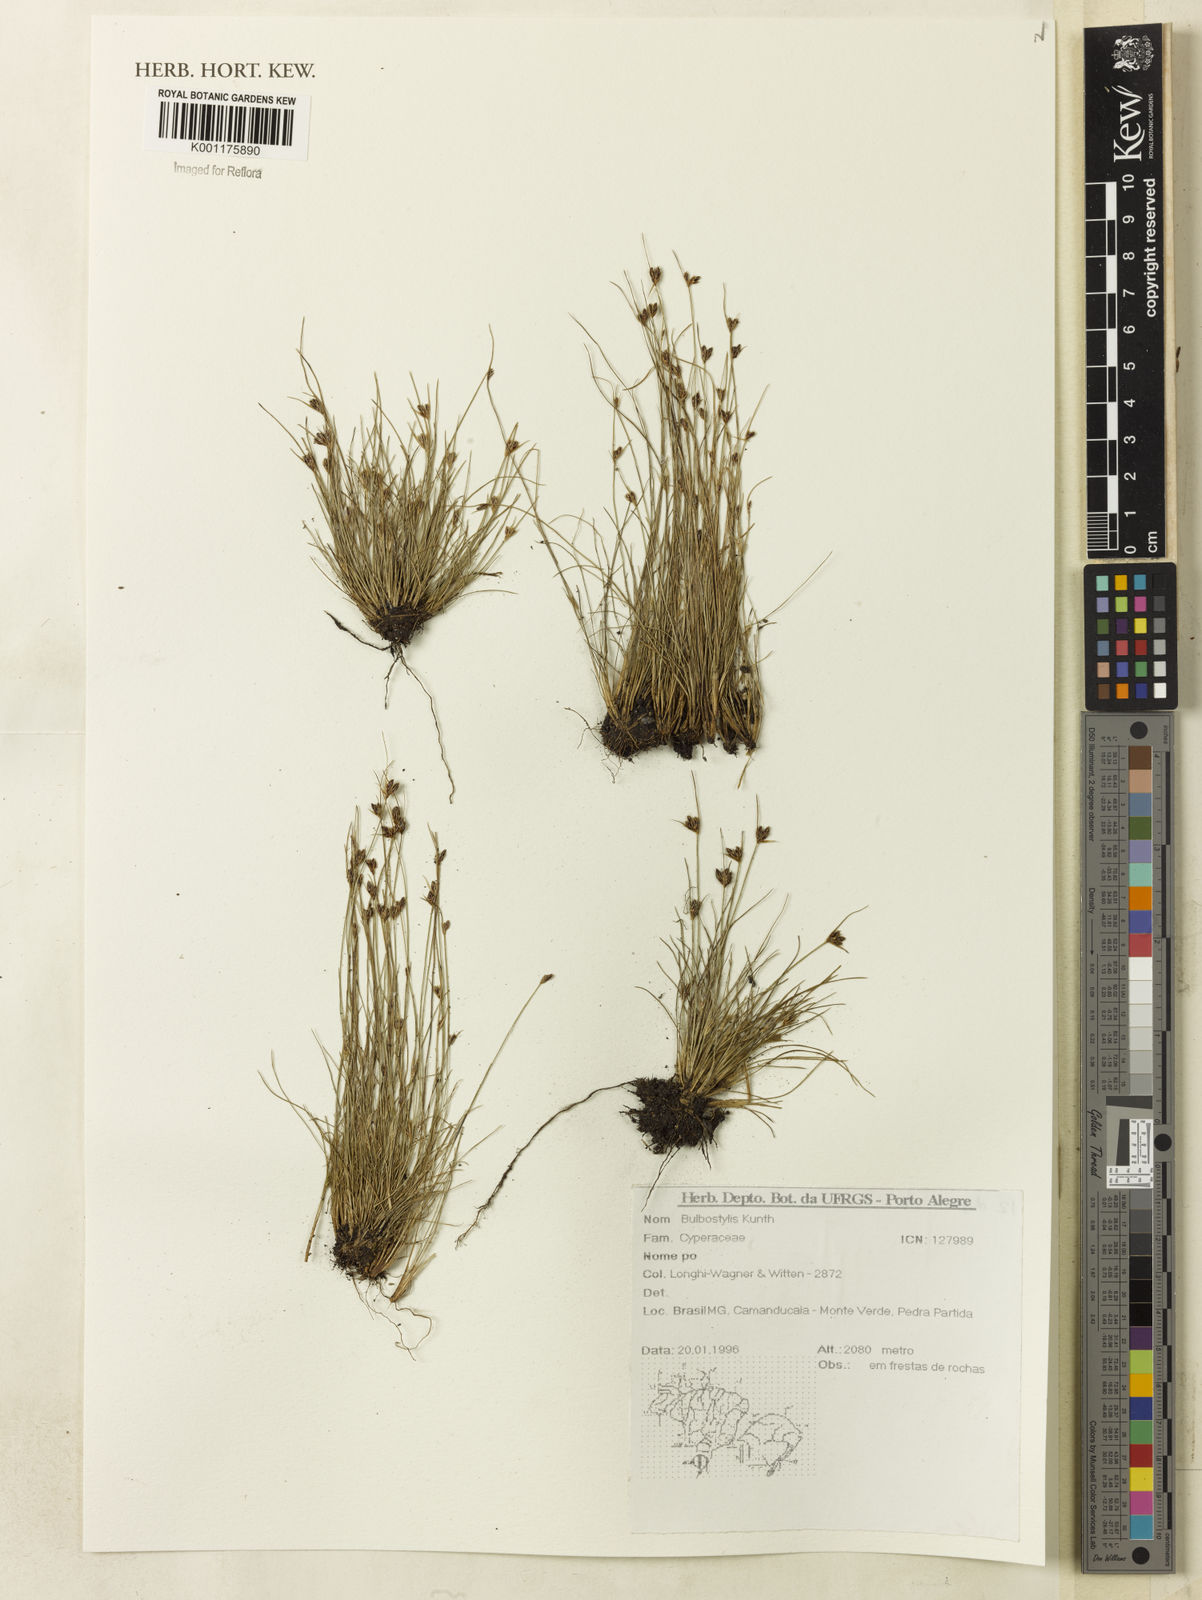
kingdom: Plantae
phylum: Tracheophyta
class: Liliopsida
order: Poales
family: Cyperaceae
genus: Bulbostylis
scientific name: Bulbostylis
